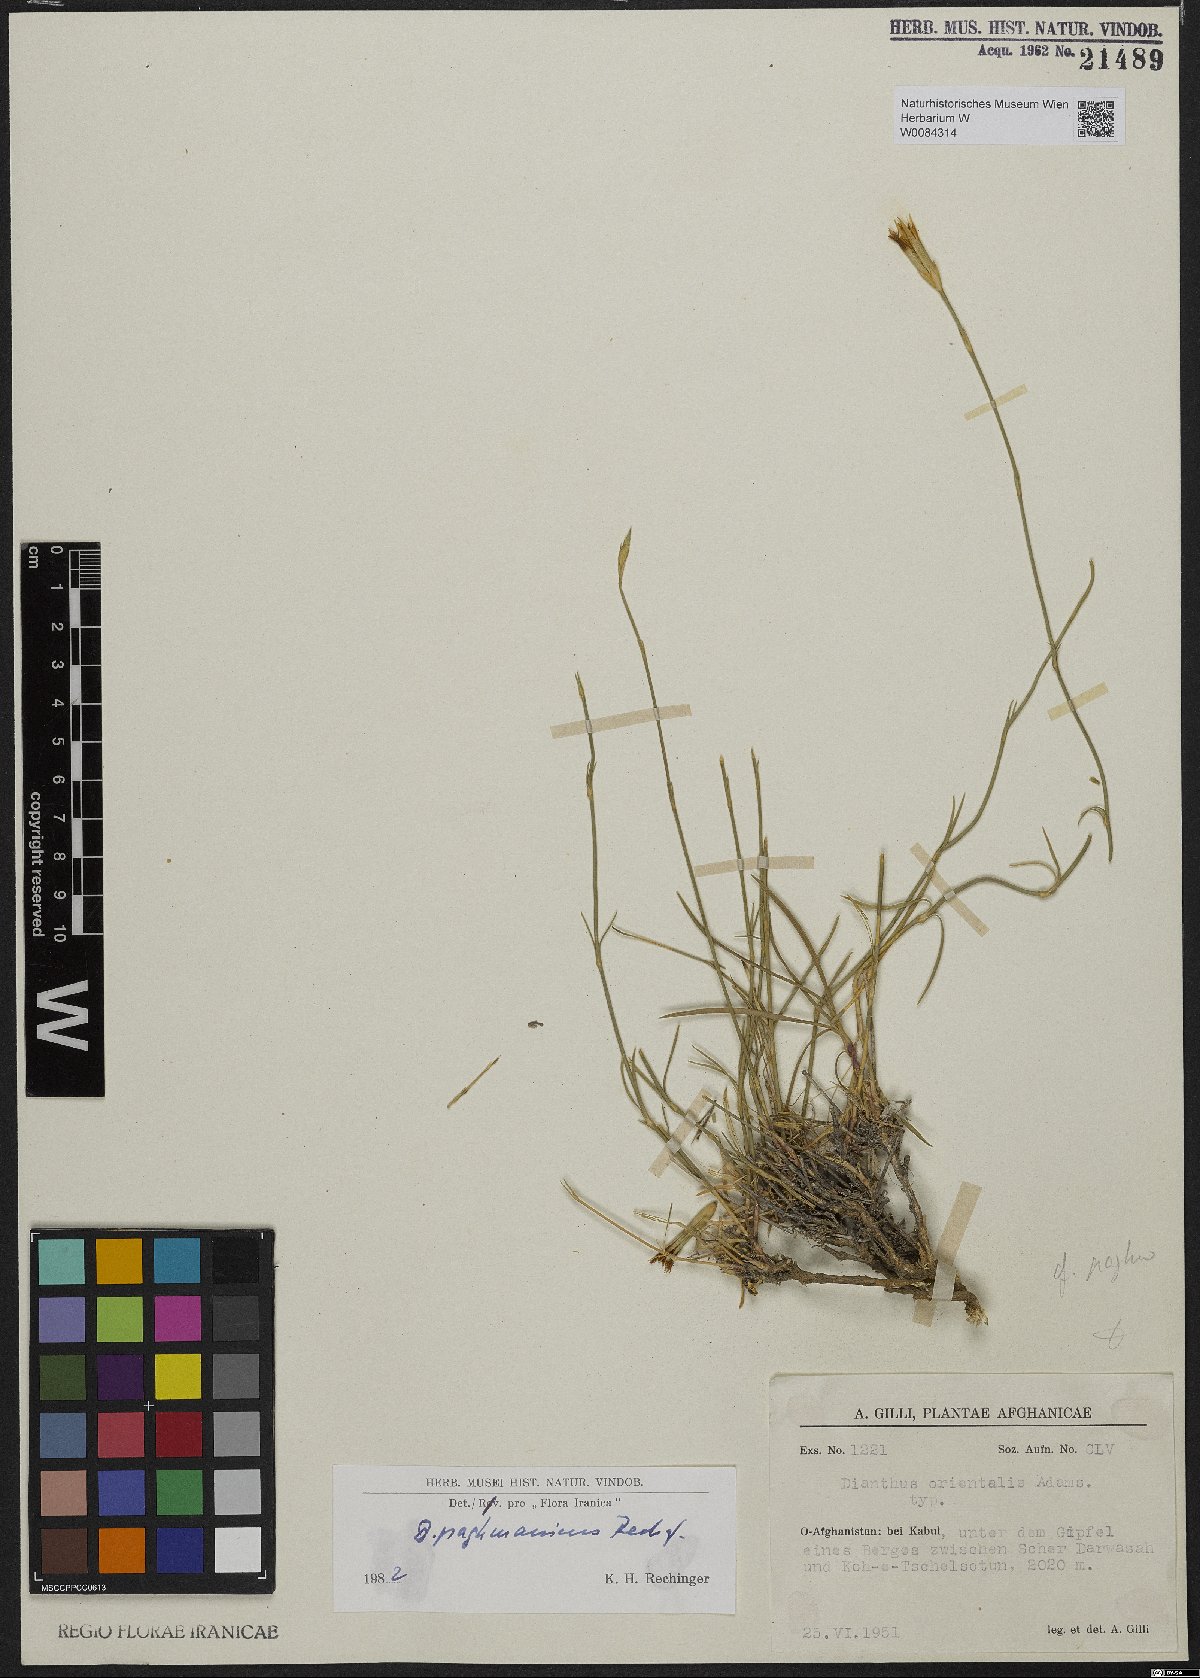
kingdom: Plantae
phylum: Tracheophyta
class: Magnoliopsida
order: Caryophyllales
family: Caryophyllaceae
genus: Dianthus
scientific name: Dianthus paghmanicus
